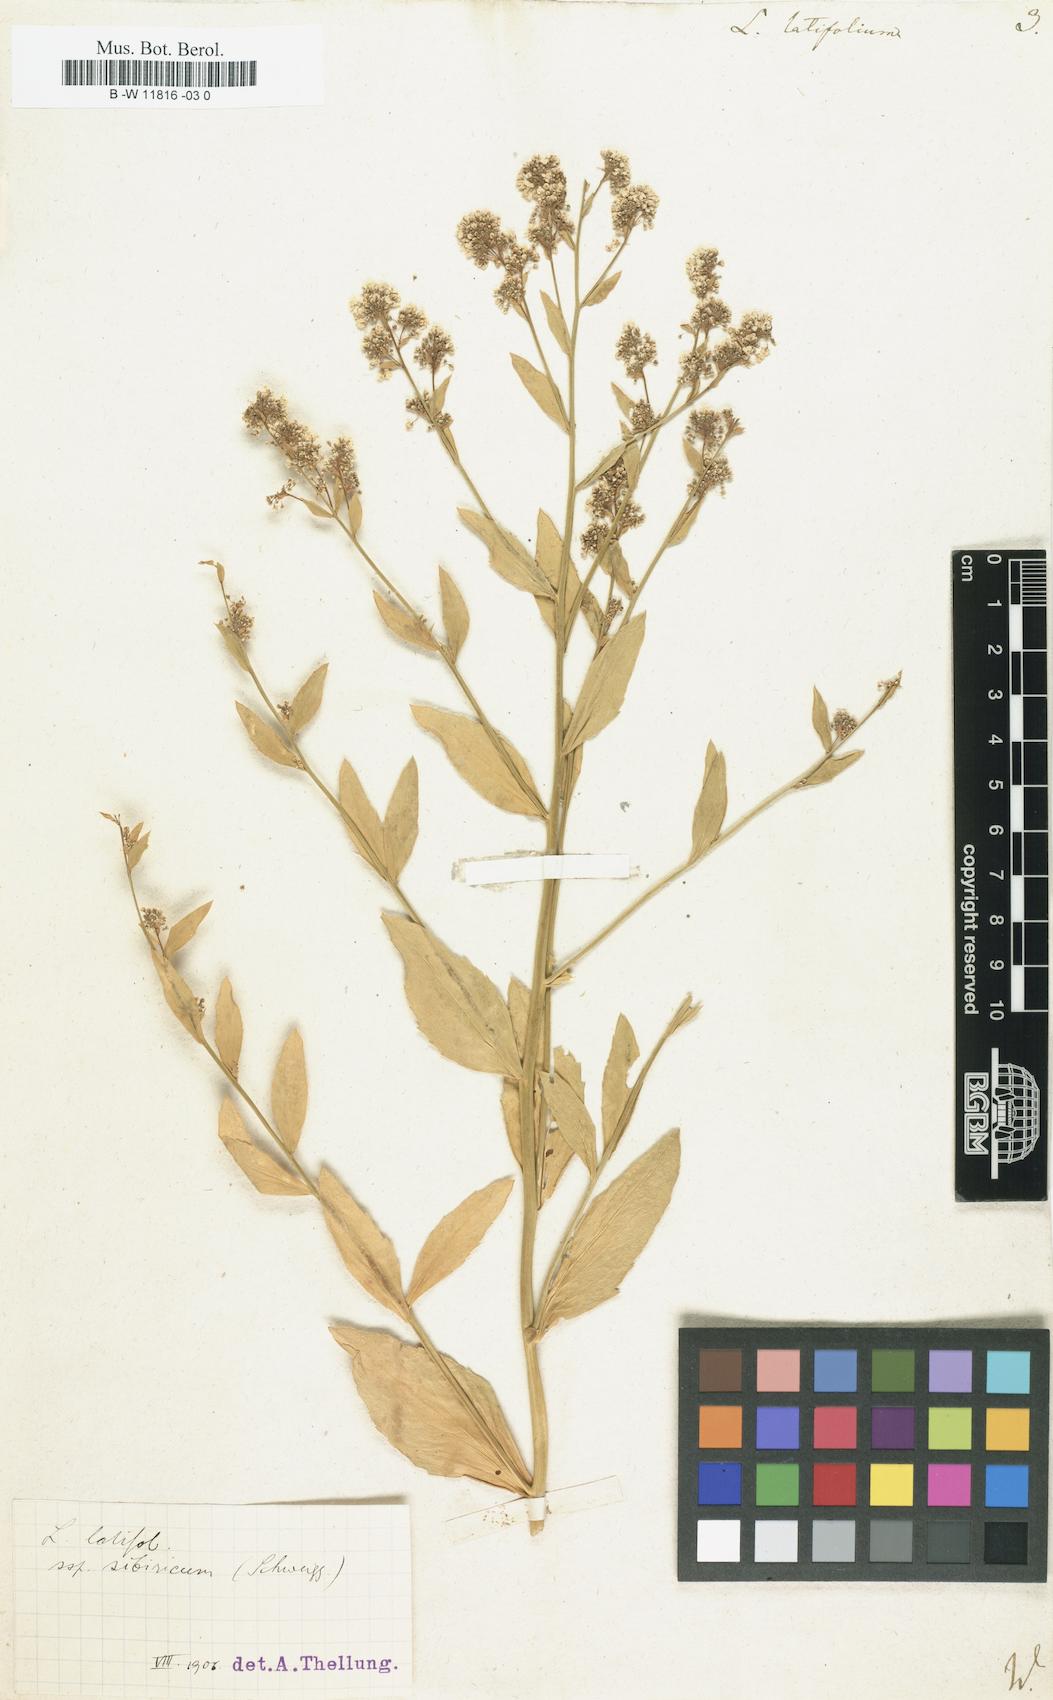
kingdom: Plantae
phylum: Tracheophyta
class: Magnoliopsida
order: Brassicales
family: Brassicaceae
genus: Lepidium
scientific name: Lepidium latifolium
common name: Dittander
